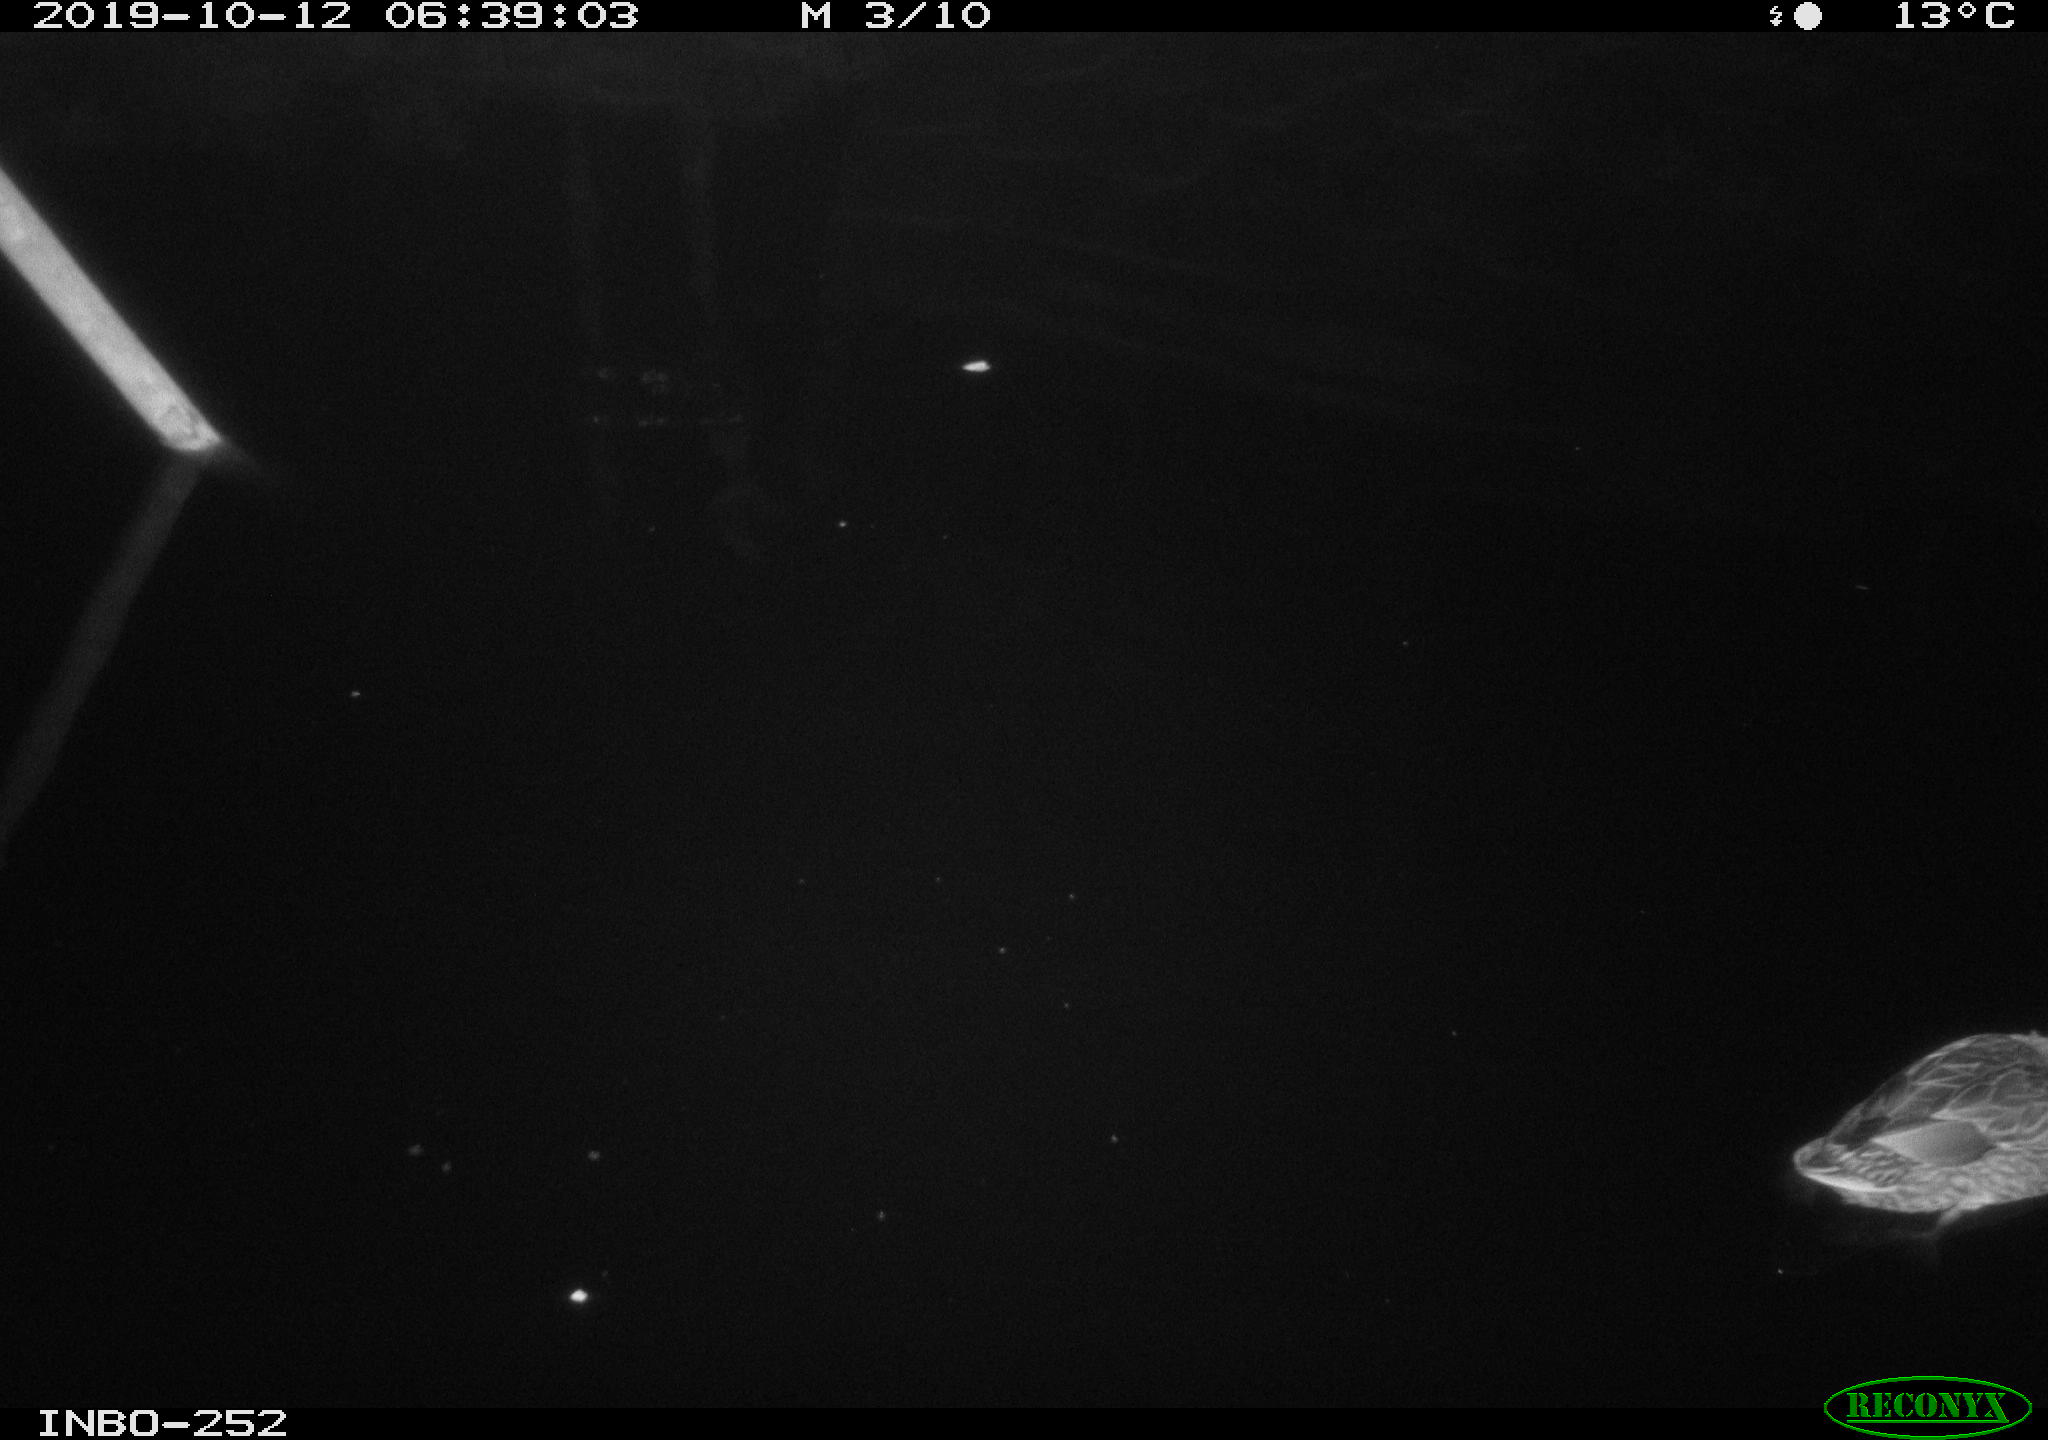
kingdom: Animalia
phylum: Chordata
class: Aves
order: Anseriformes
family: Anatidae
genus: Anas
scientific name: Anas platyrhynchos
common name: Mallard
